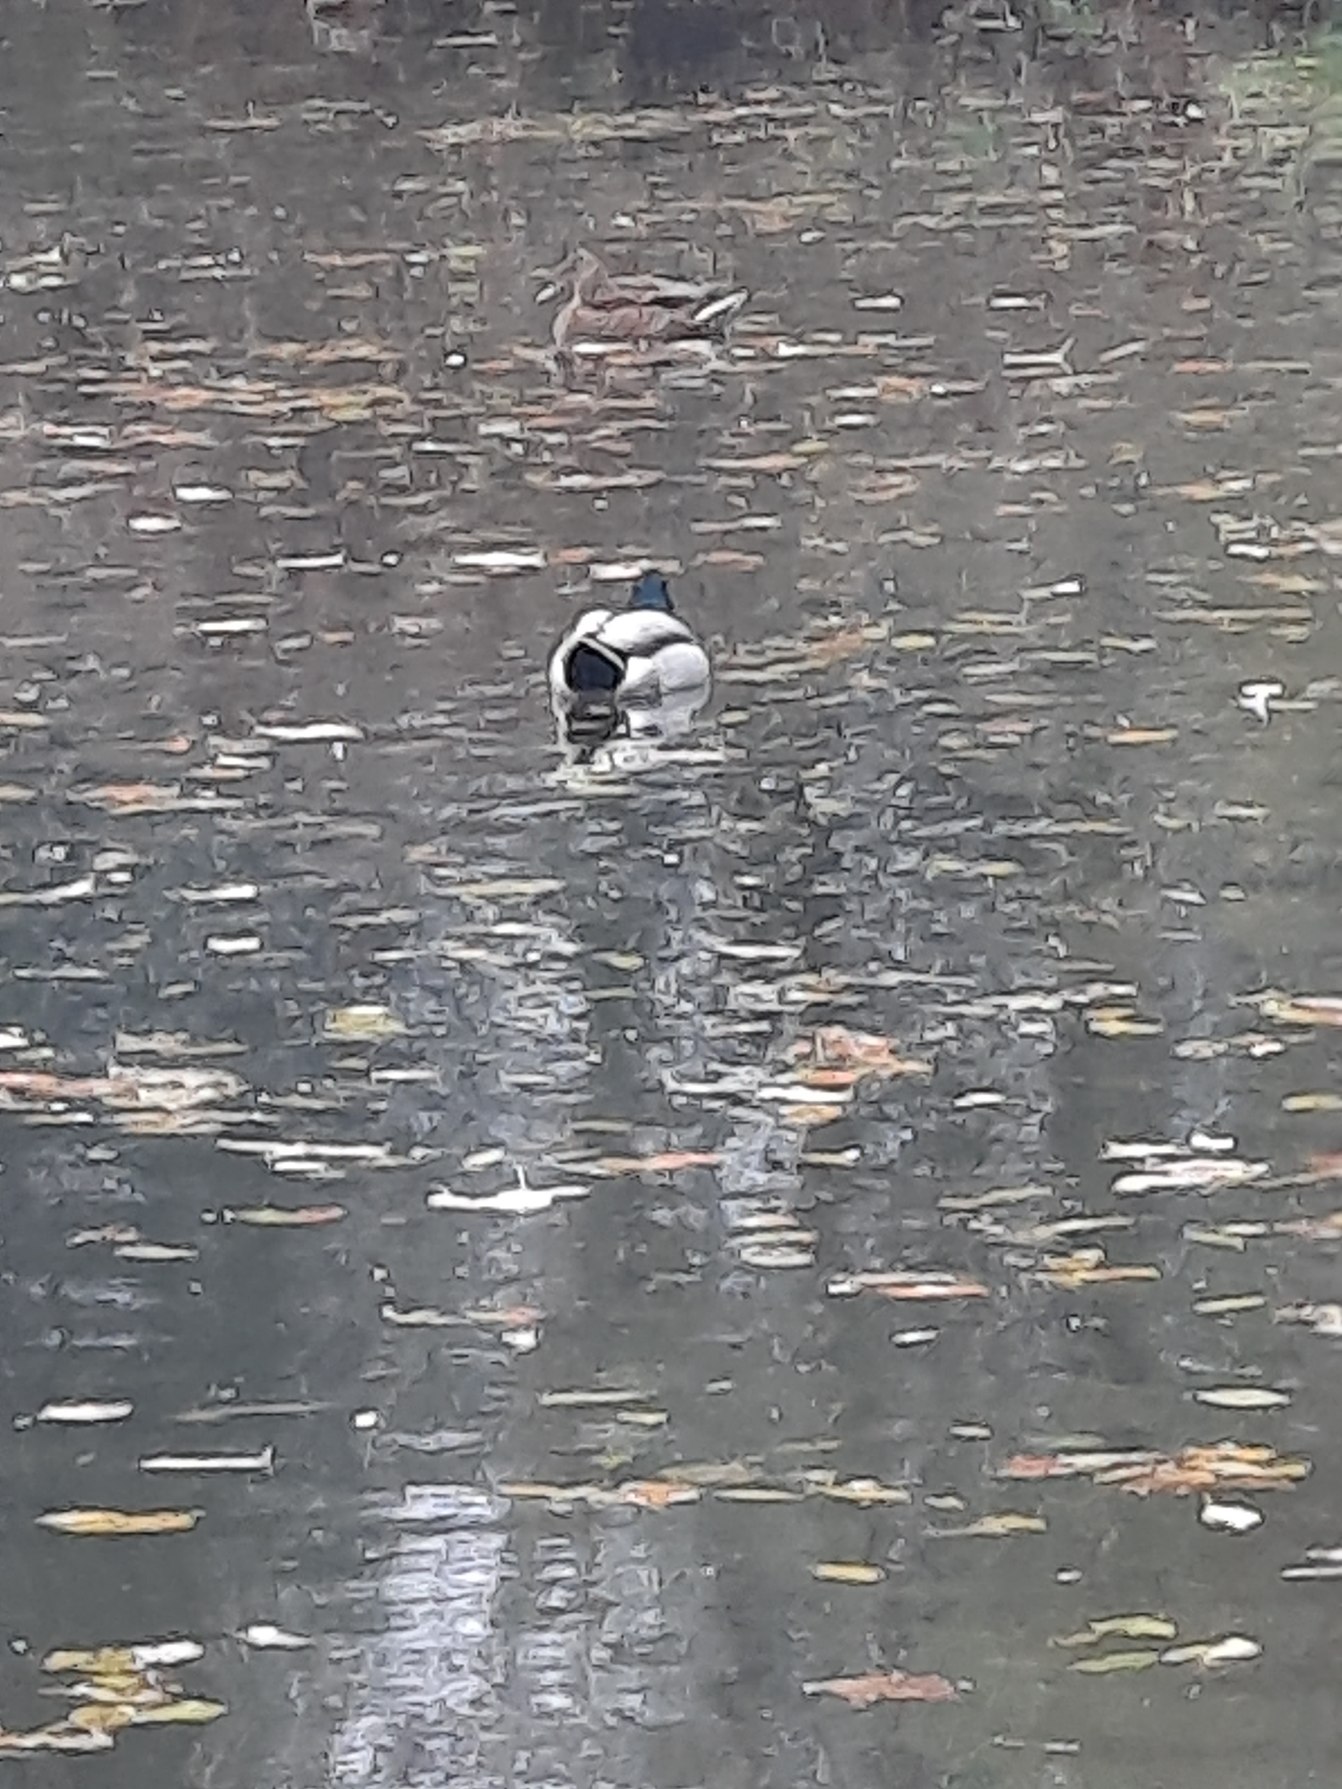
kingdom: Animalia
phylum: Chordata
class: Aves
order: Anseriformes
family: Anatidae
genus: Anas
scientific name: Anas platyrhynchos
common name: Gråand
